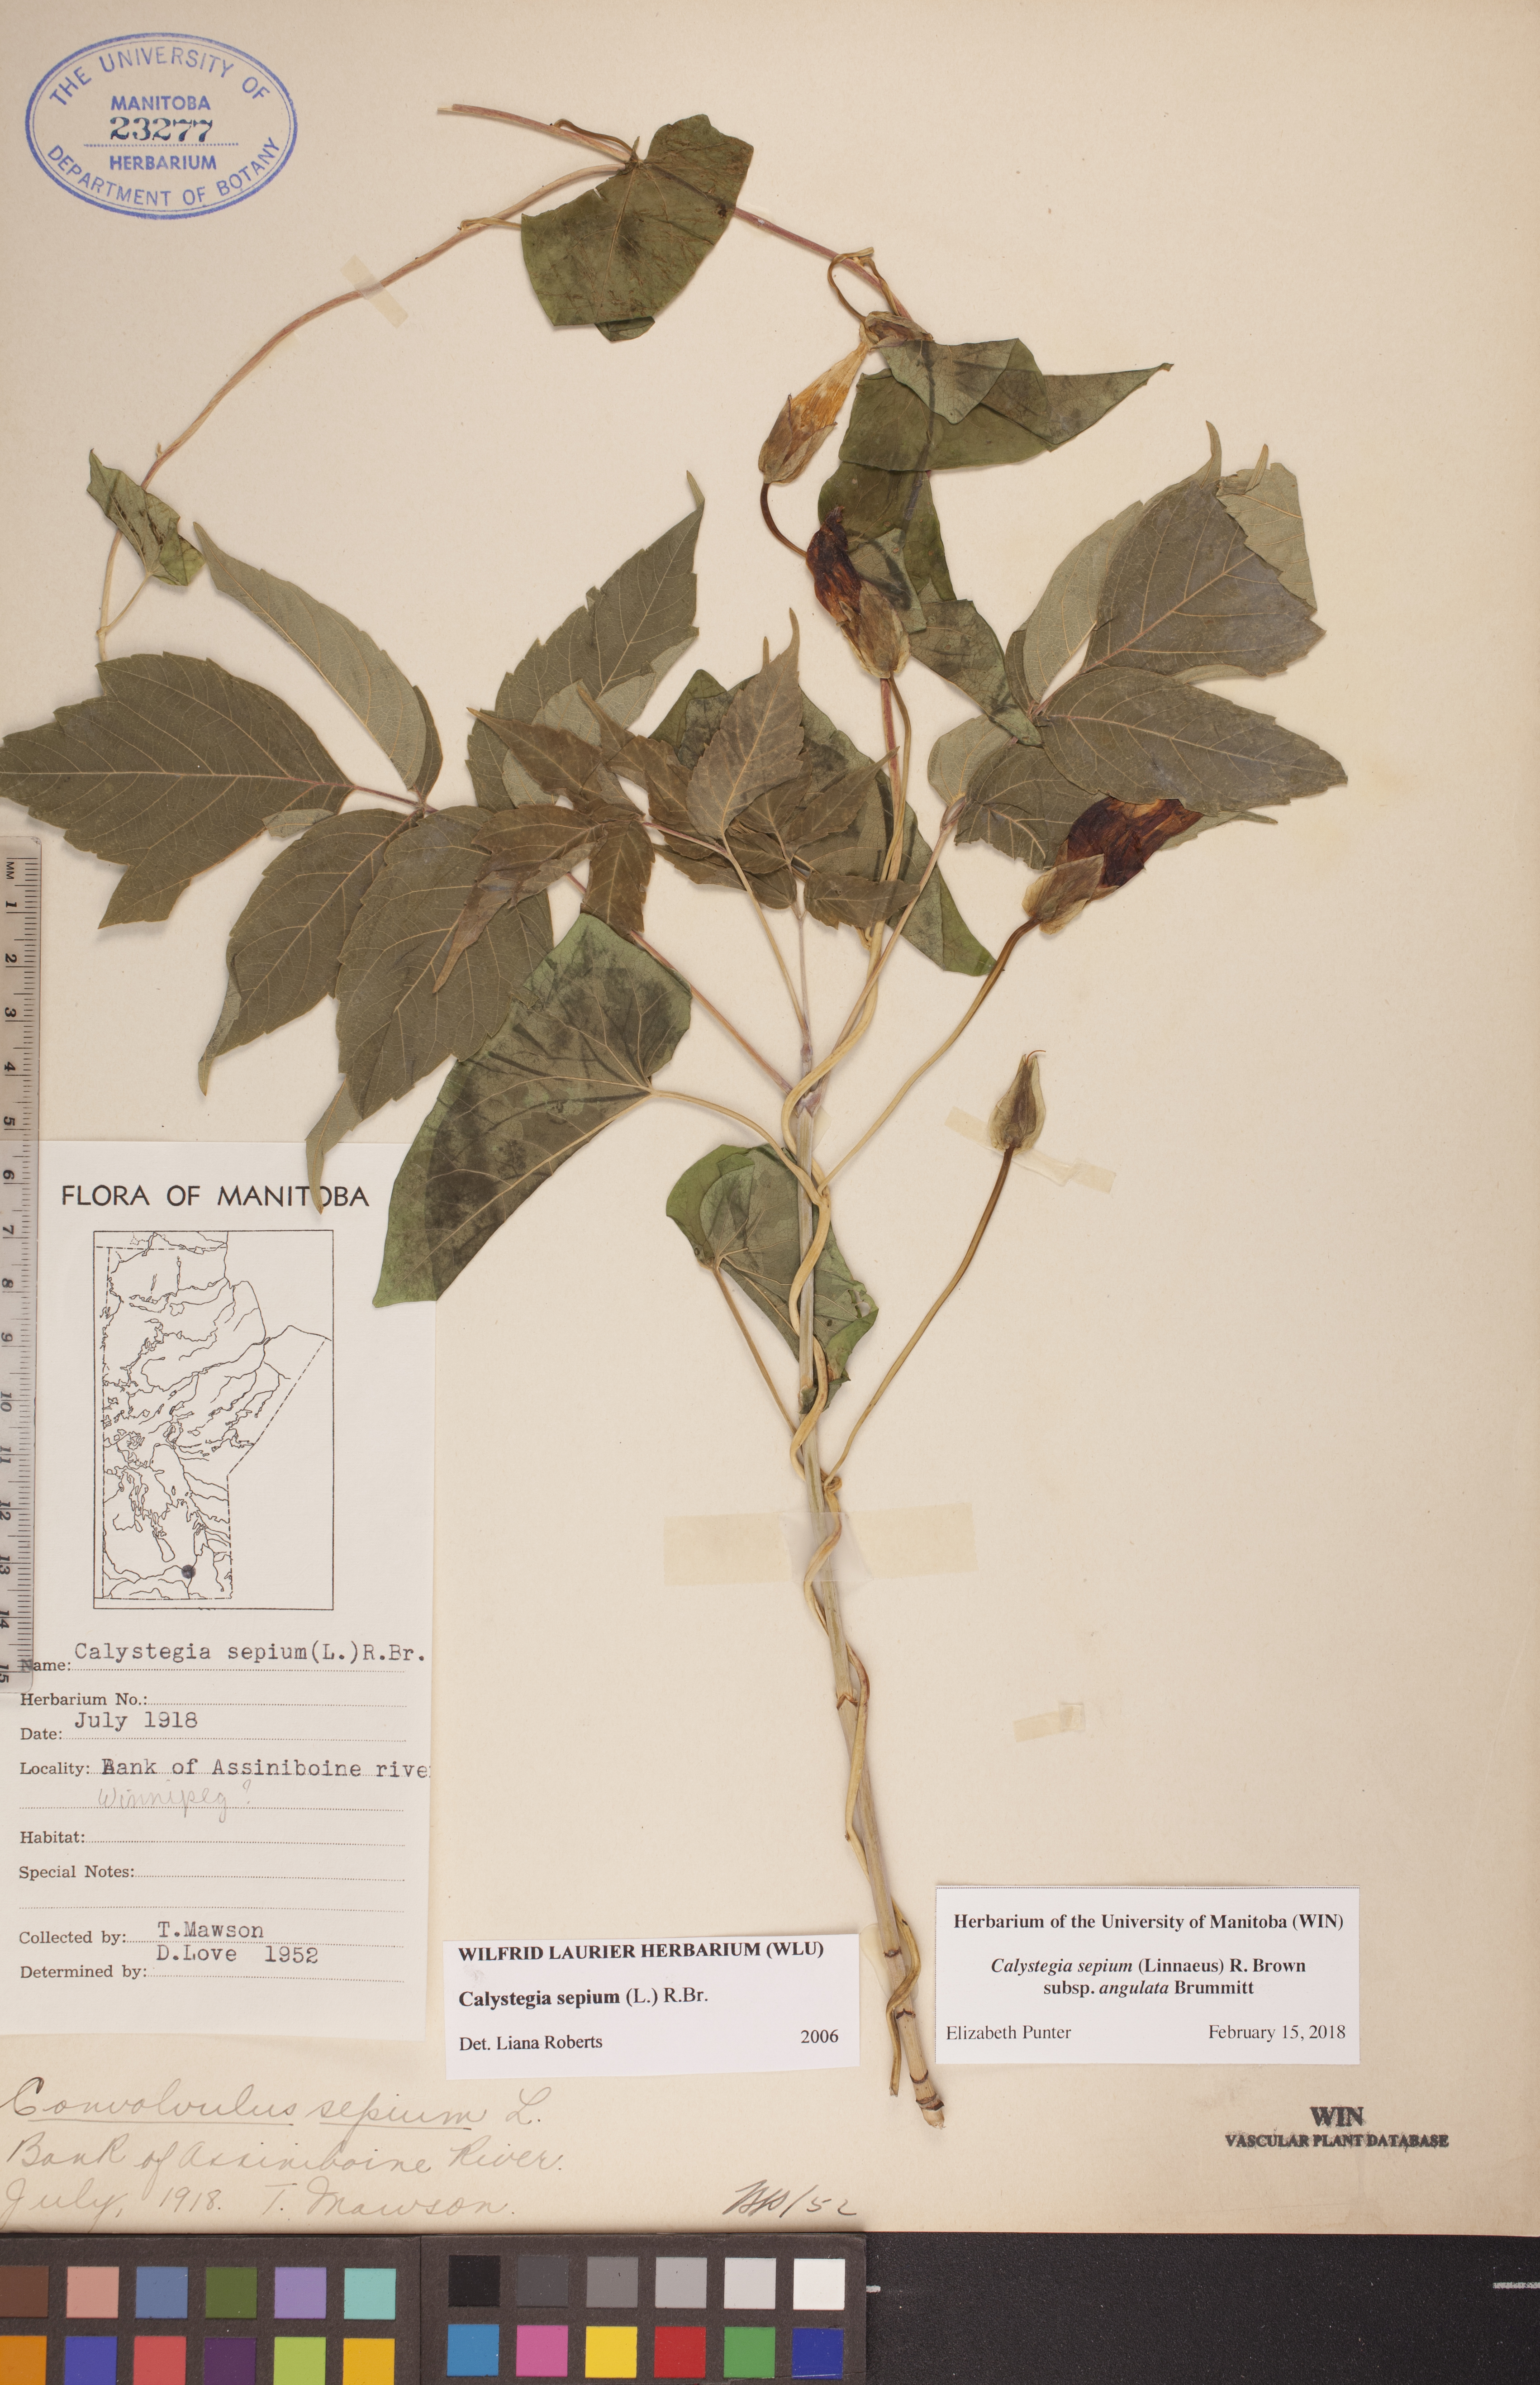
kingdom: Plantae
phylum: Tracheophyta
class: Magnoliopsida
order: Solanales
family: Convolvulaceae
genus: Calystegia
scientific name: Calystegia sepium
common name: Hedge bindweed
